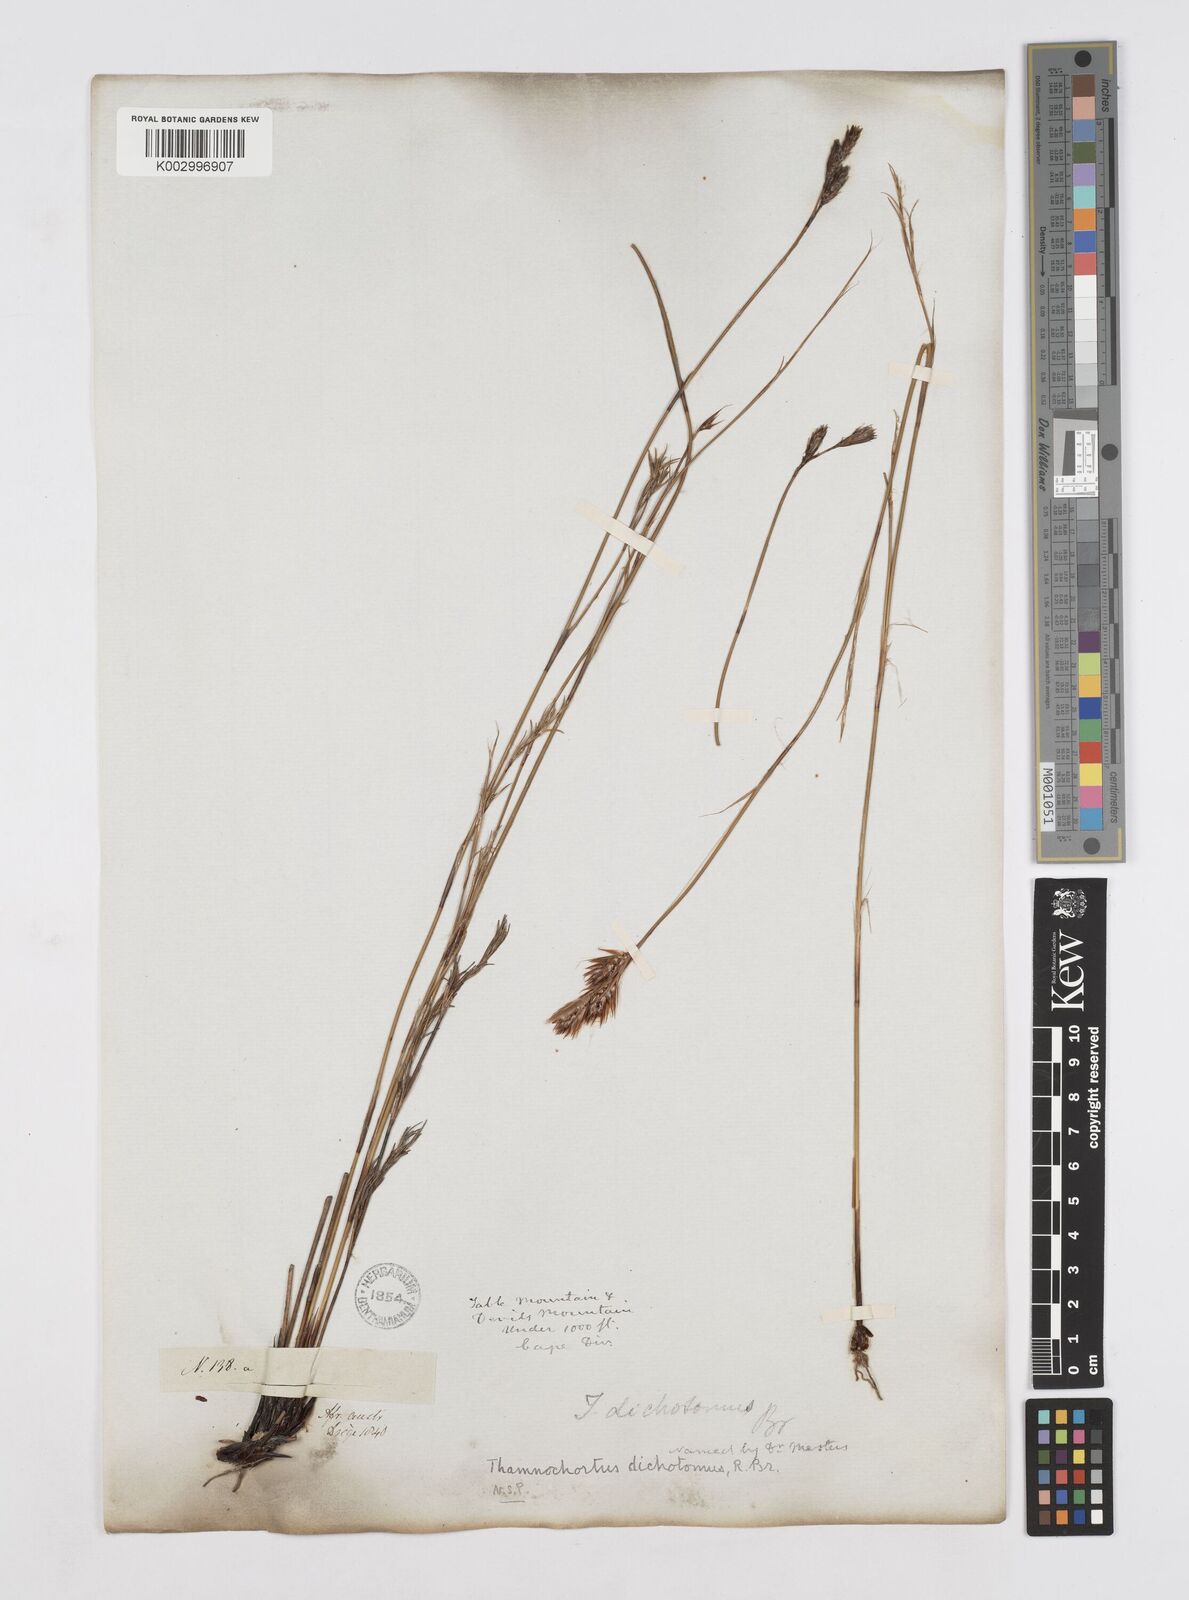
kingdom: Plantae
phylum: Tracheophyta
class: Liliopsida
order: Poales
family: Restionaceae
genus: Thamnochortus
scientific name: Thamnochortus lucens
